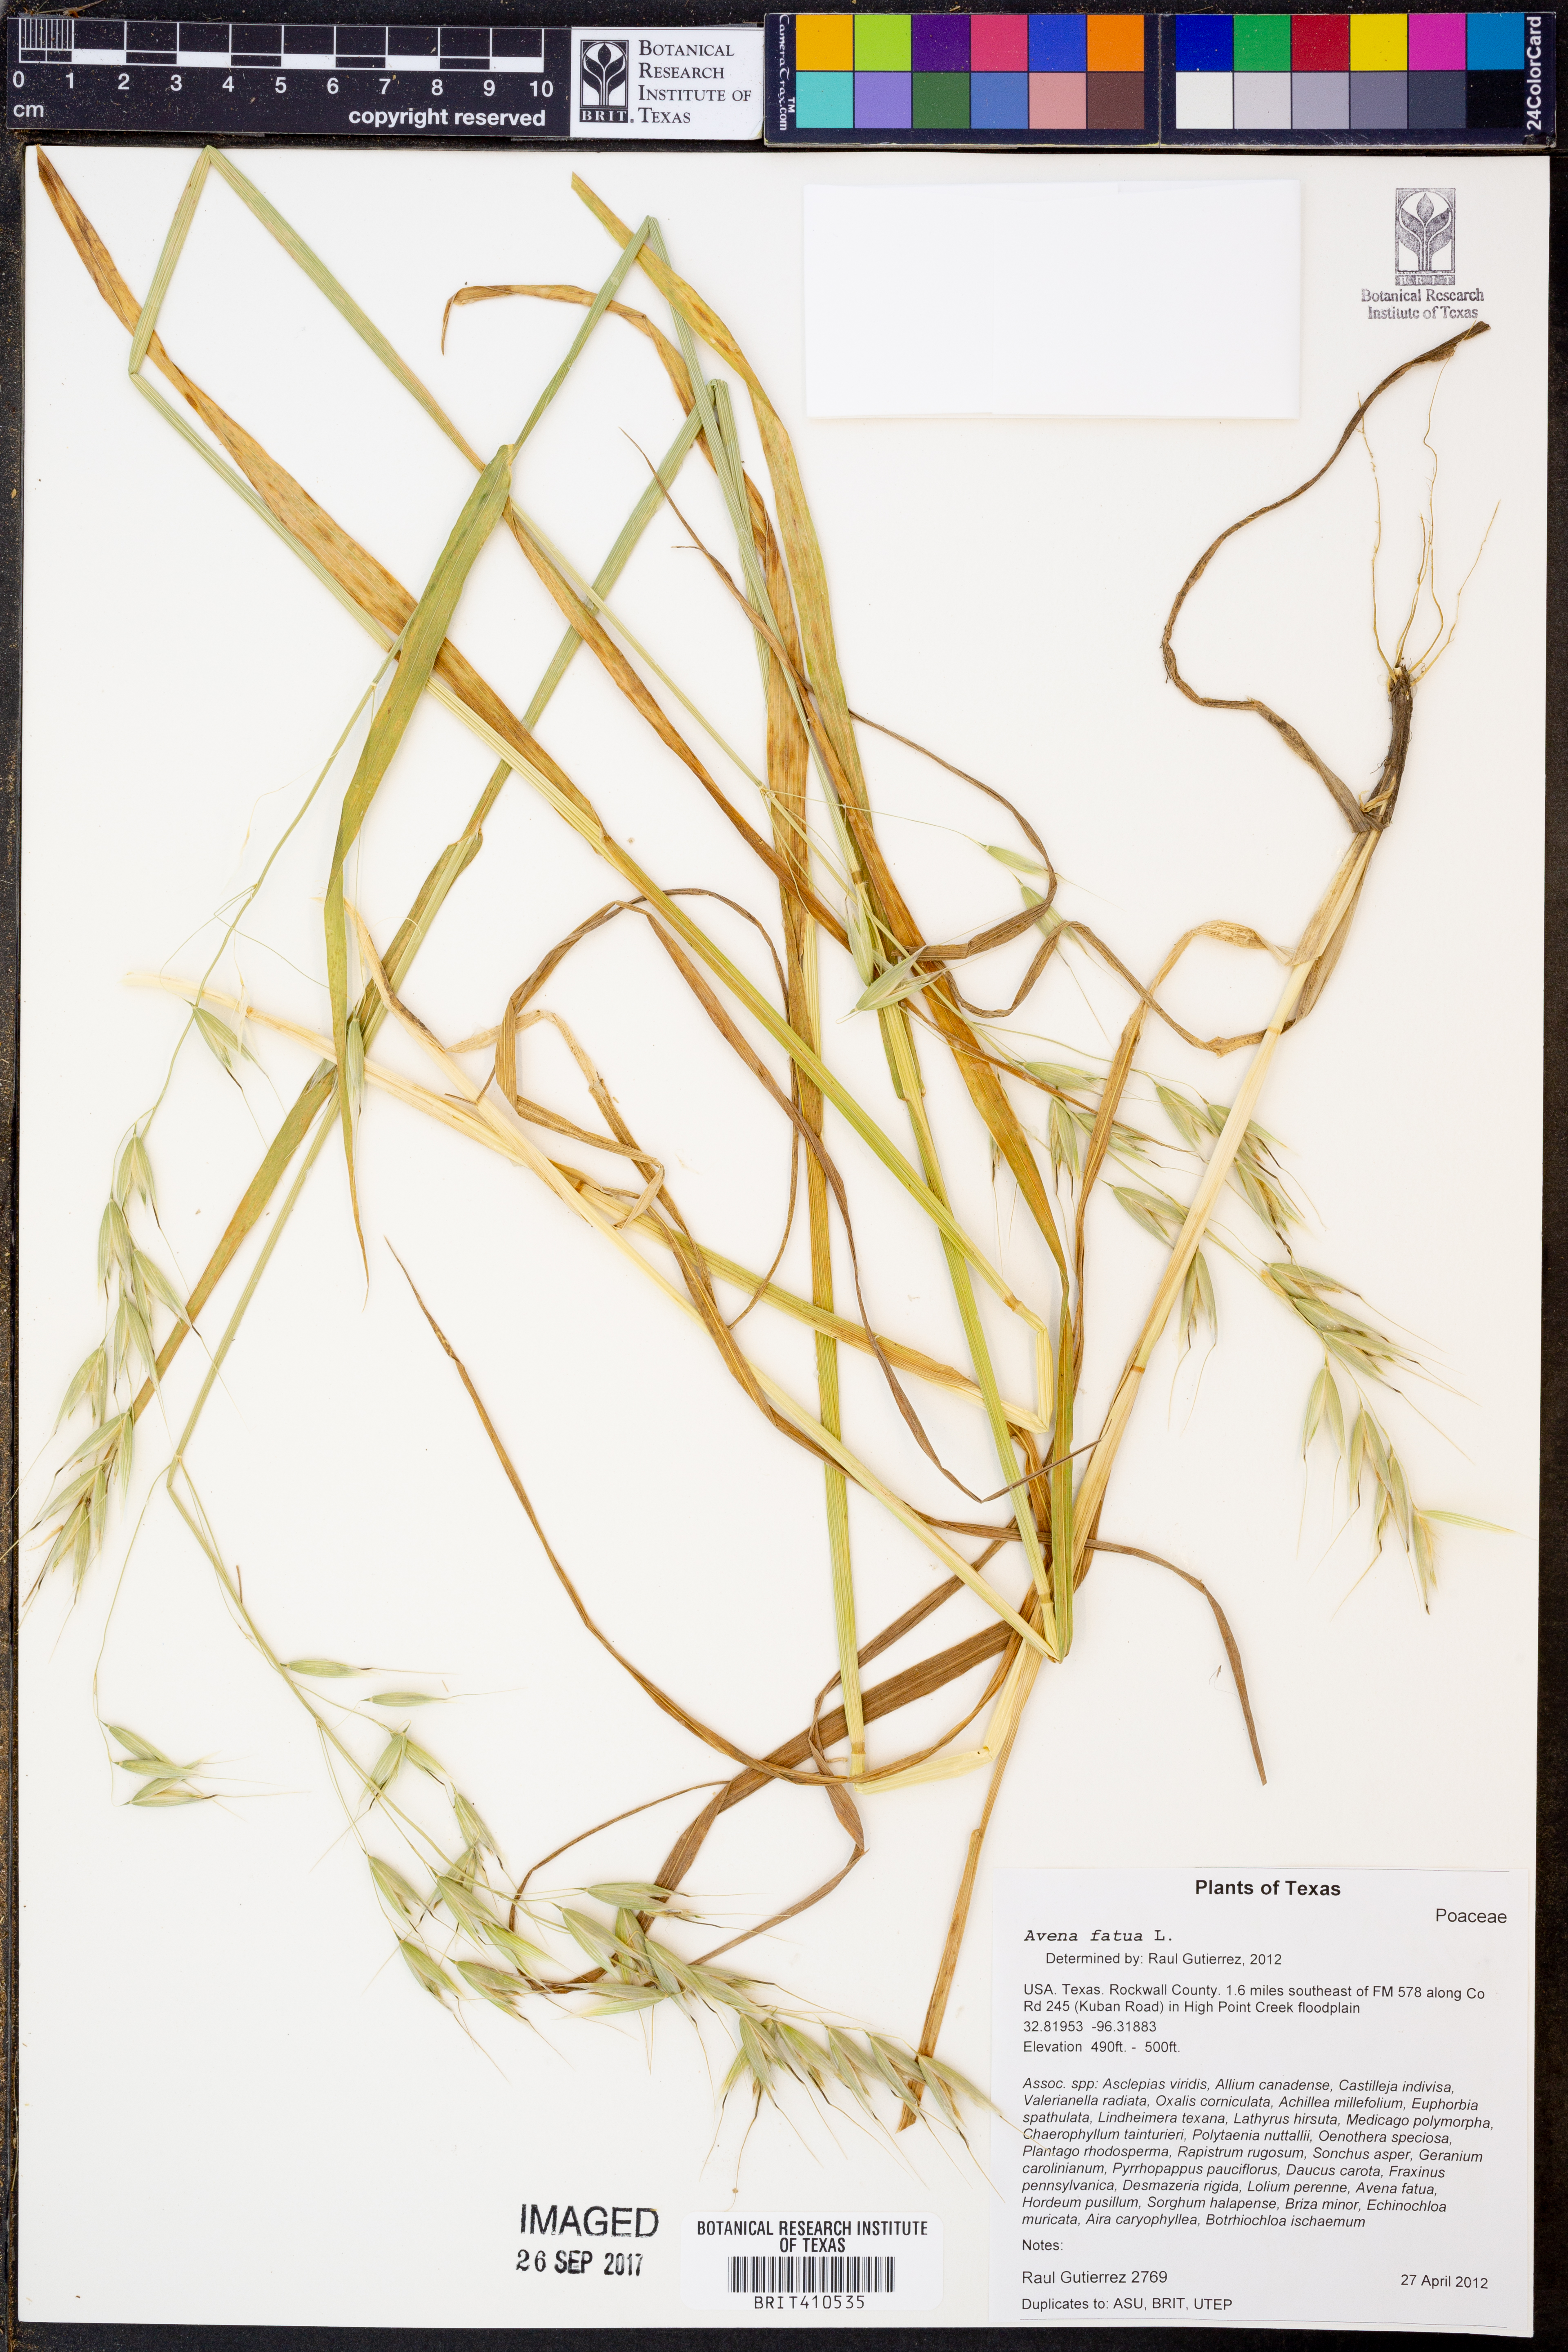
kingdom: Plantae
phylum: Tracheophyta
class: Liliopsida
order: Poales
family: Poaceae
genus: Avena
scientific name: Avena fatua
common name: Wild oat
